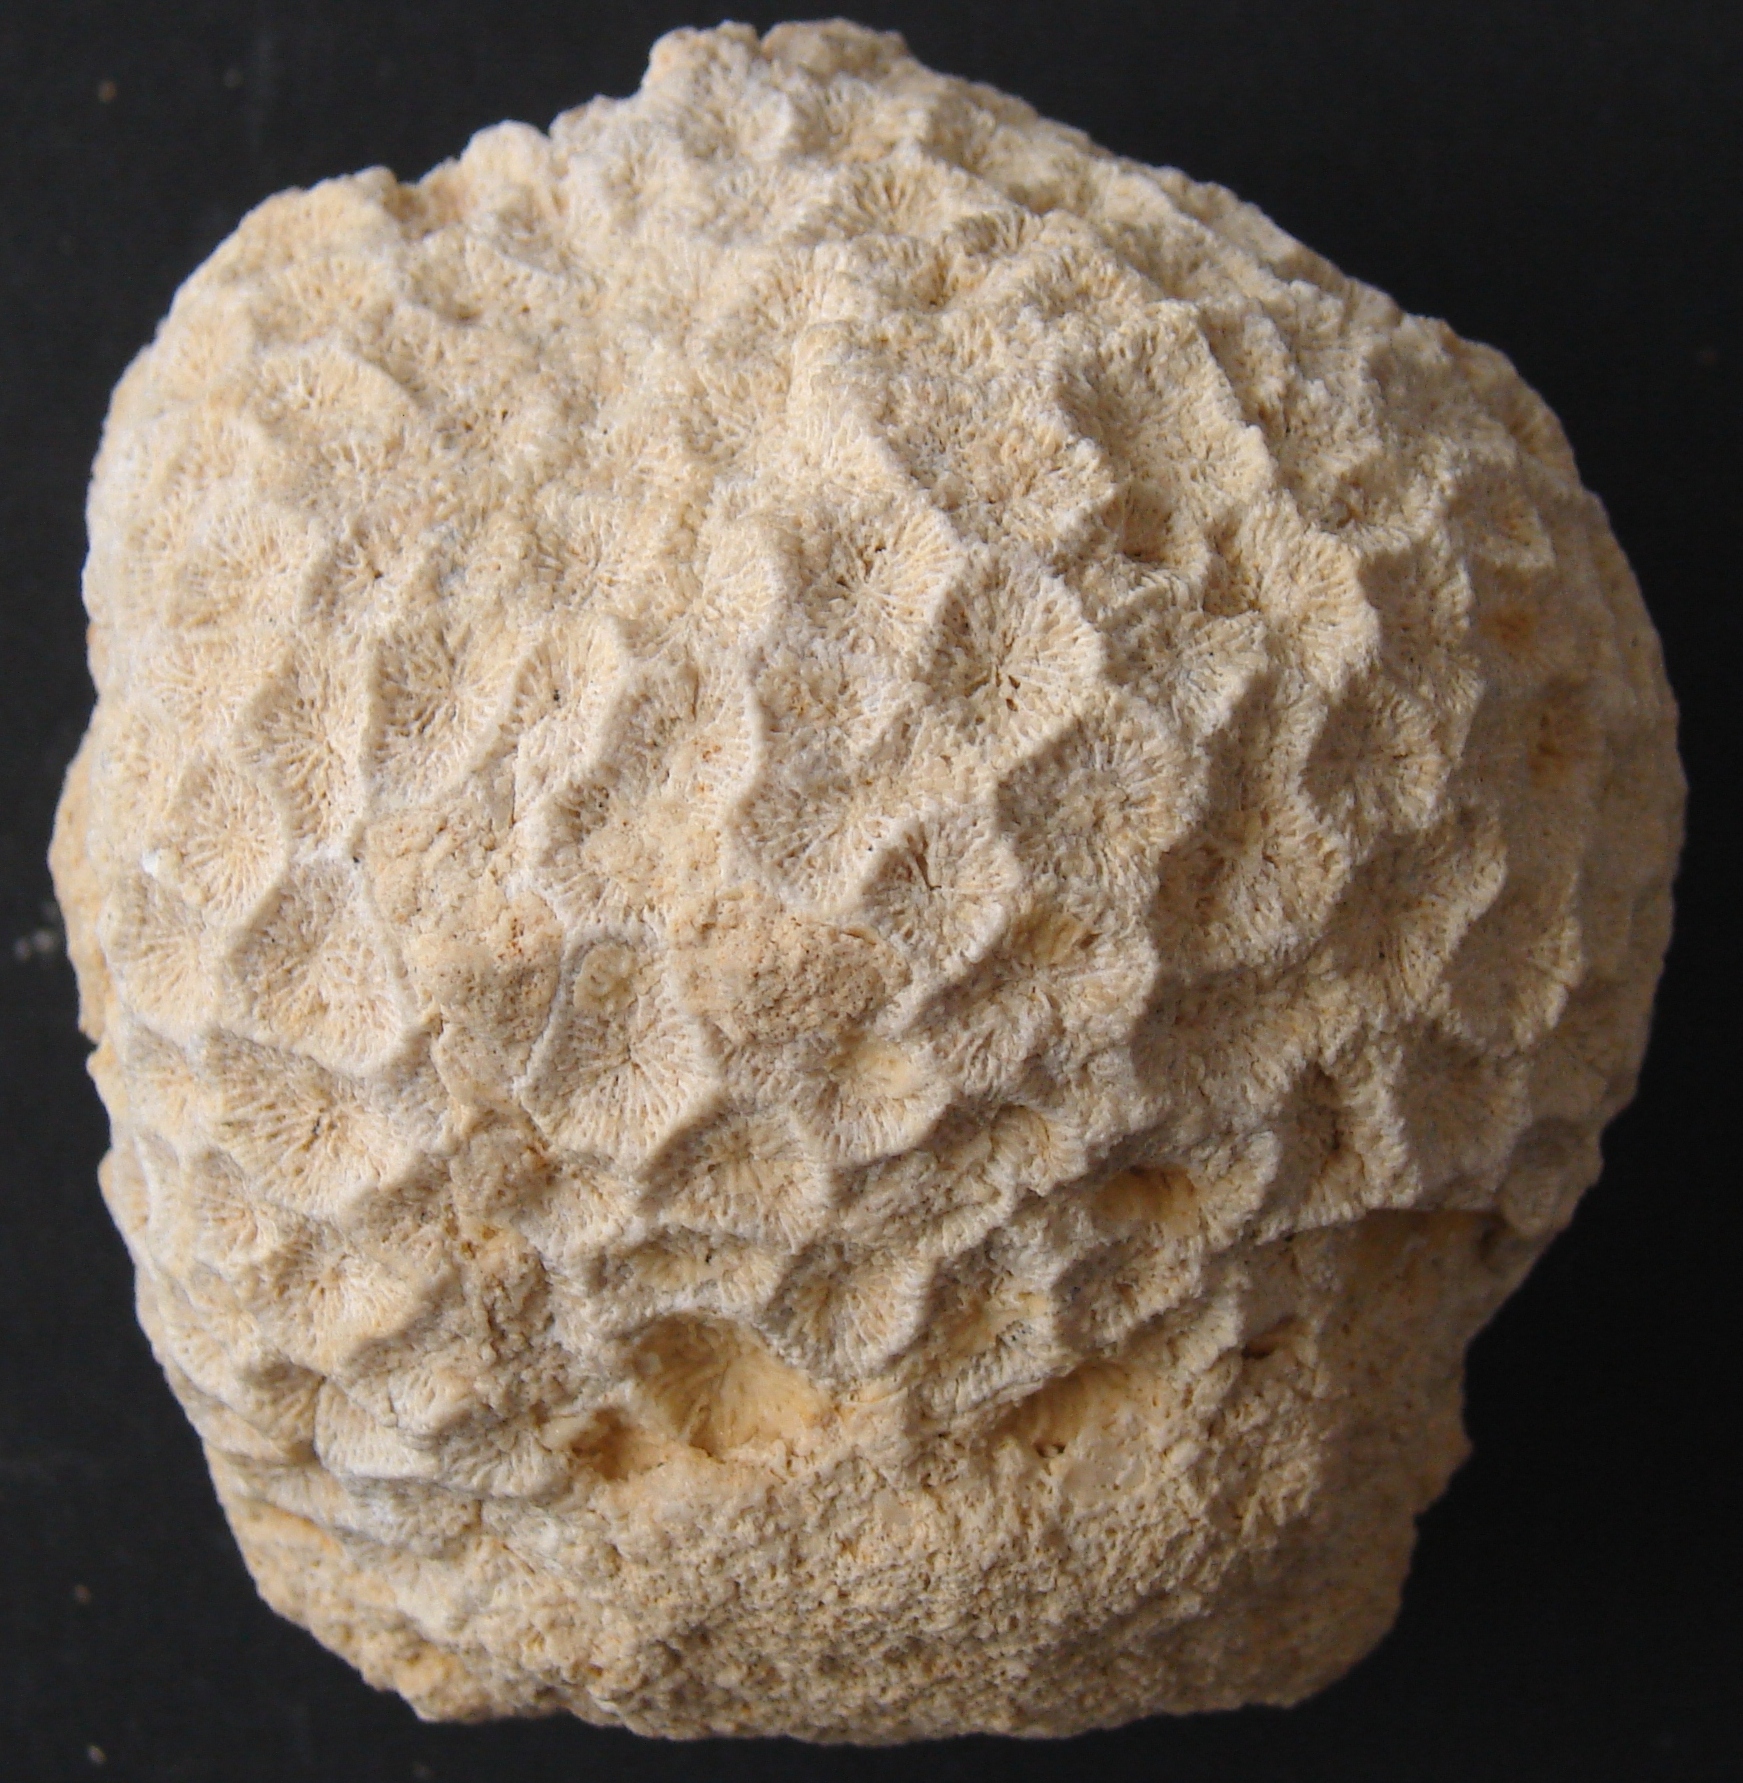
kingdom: Animalia
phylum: Cnidaria
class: Anthozoa
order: Scleractinia
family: Thecosmiliidae
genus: Isastrea
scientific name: Isastrea bernardiana
